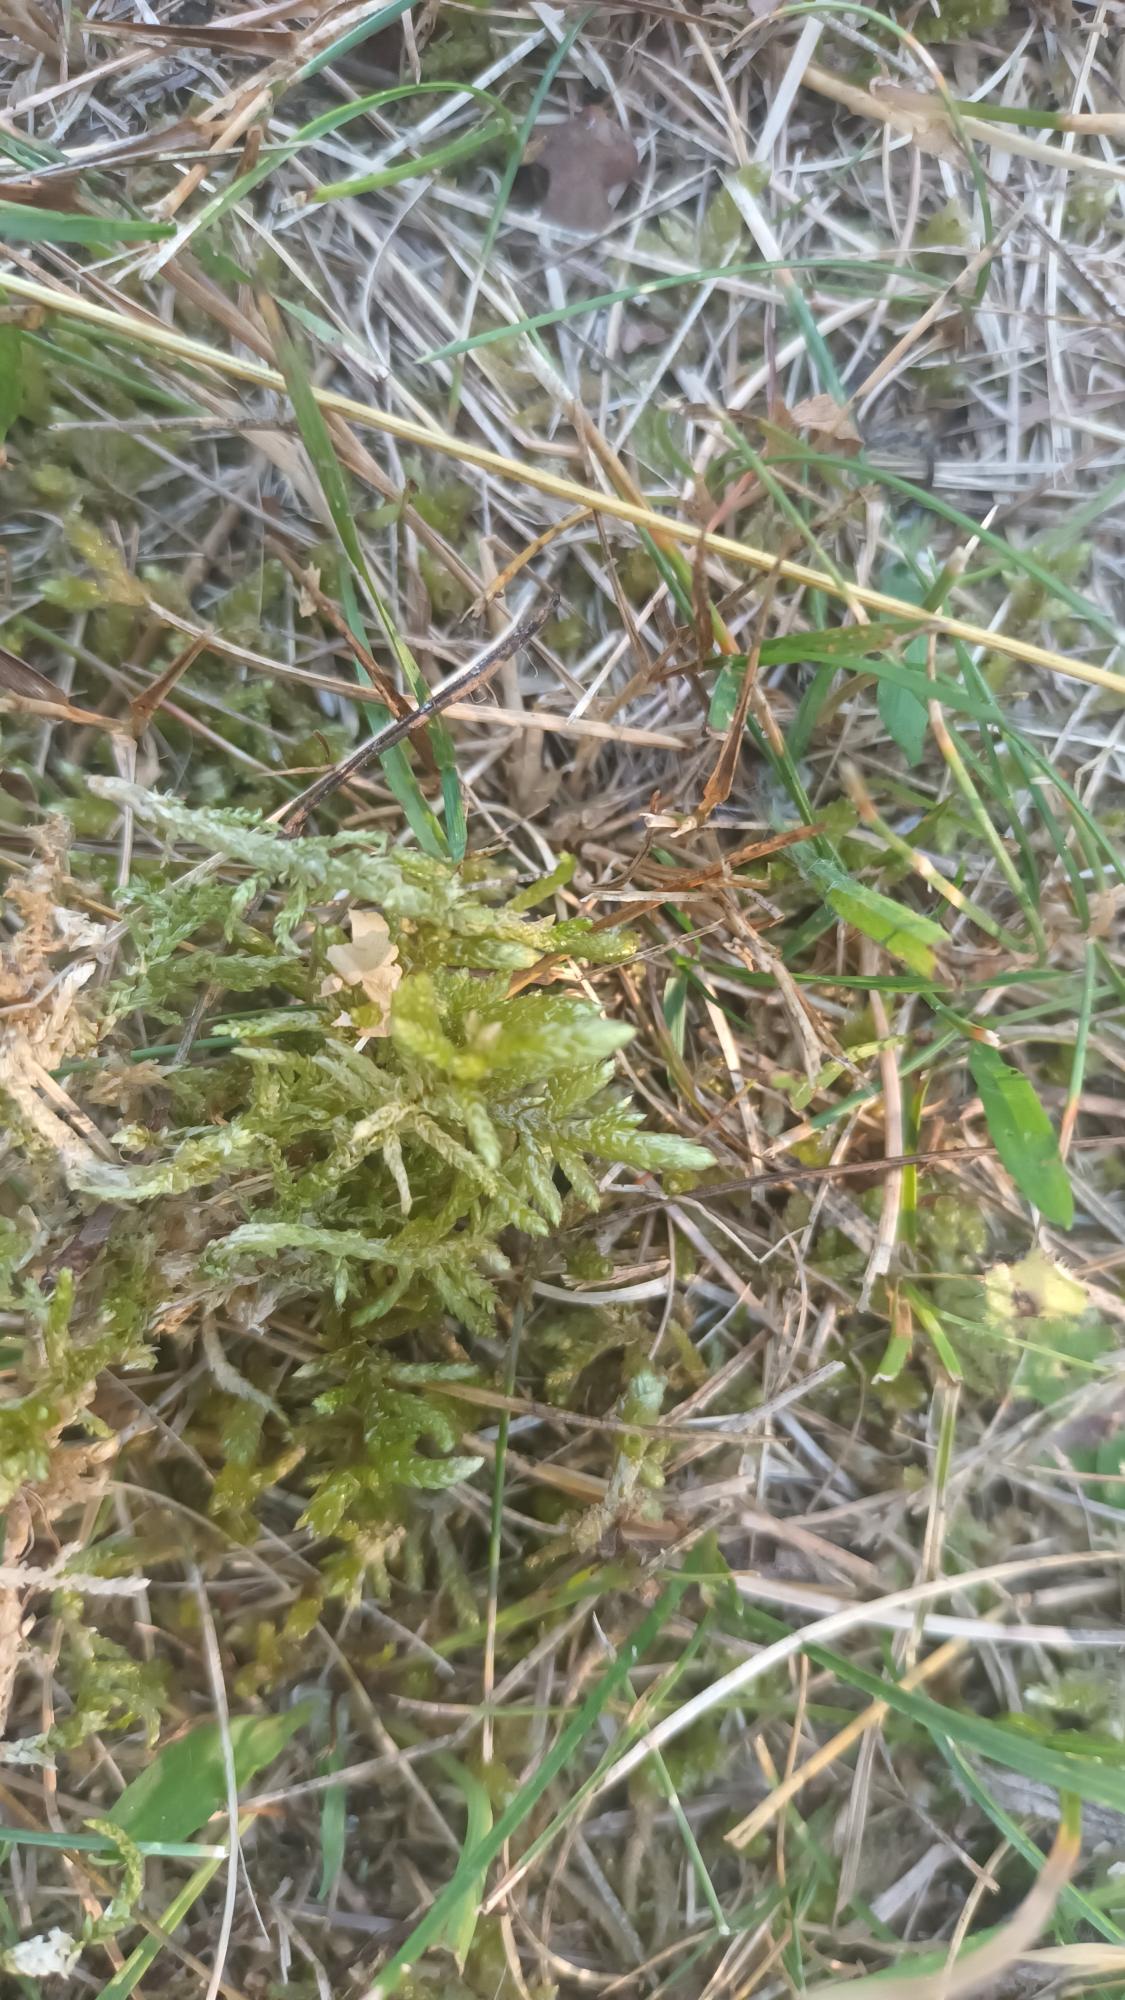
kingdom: Plantae
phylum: Bryophyta
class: Bryopsida
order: Hypnales
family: Brachytheciaceae
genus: Pseudoscleropodium
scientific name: Pseudoscleropodium purum
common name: Hulbladet fedtmos
